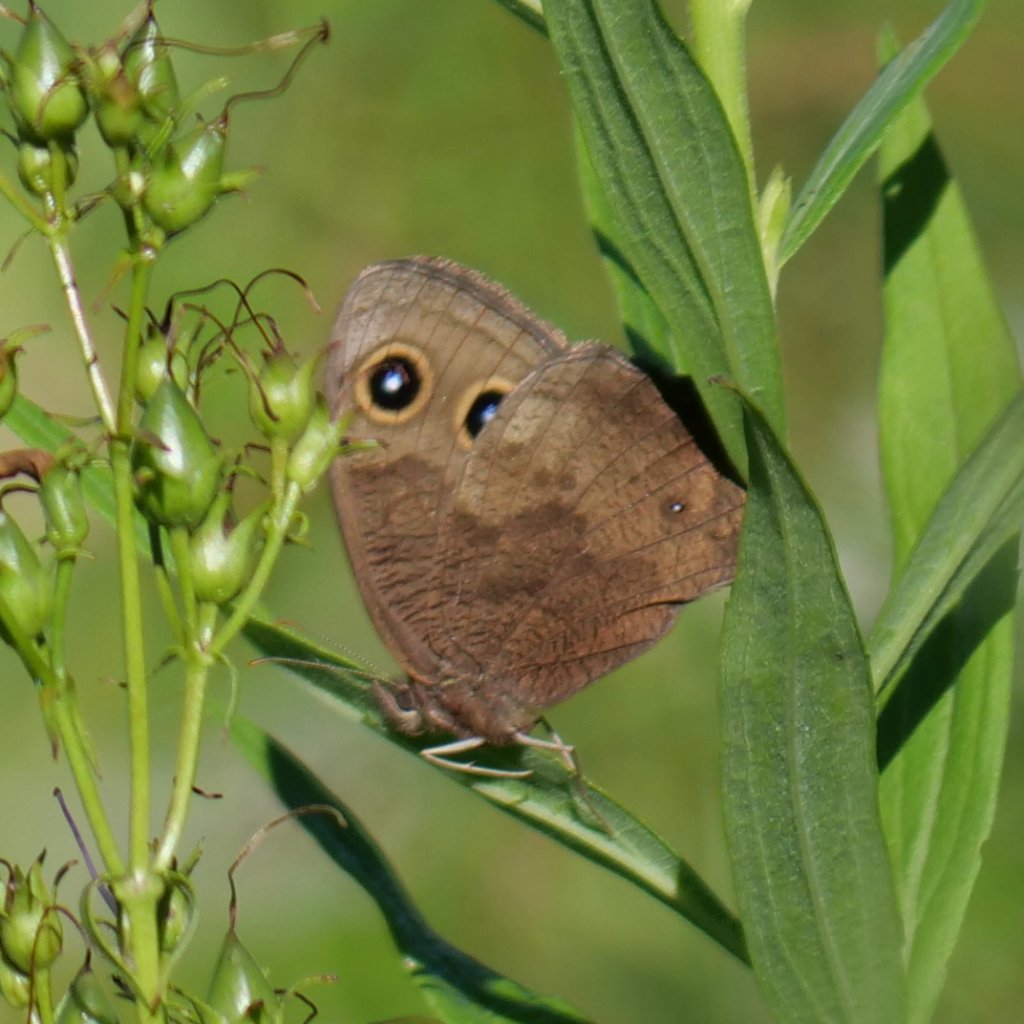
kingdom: Animalia
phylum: Arthropoda
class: Insecta
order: Lepidoptera
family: Nymphalidae
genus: Cercyonis
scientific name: Cercyonis pegala
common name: Common Wood-Nymph
